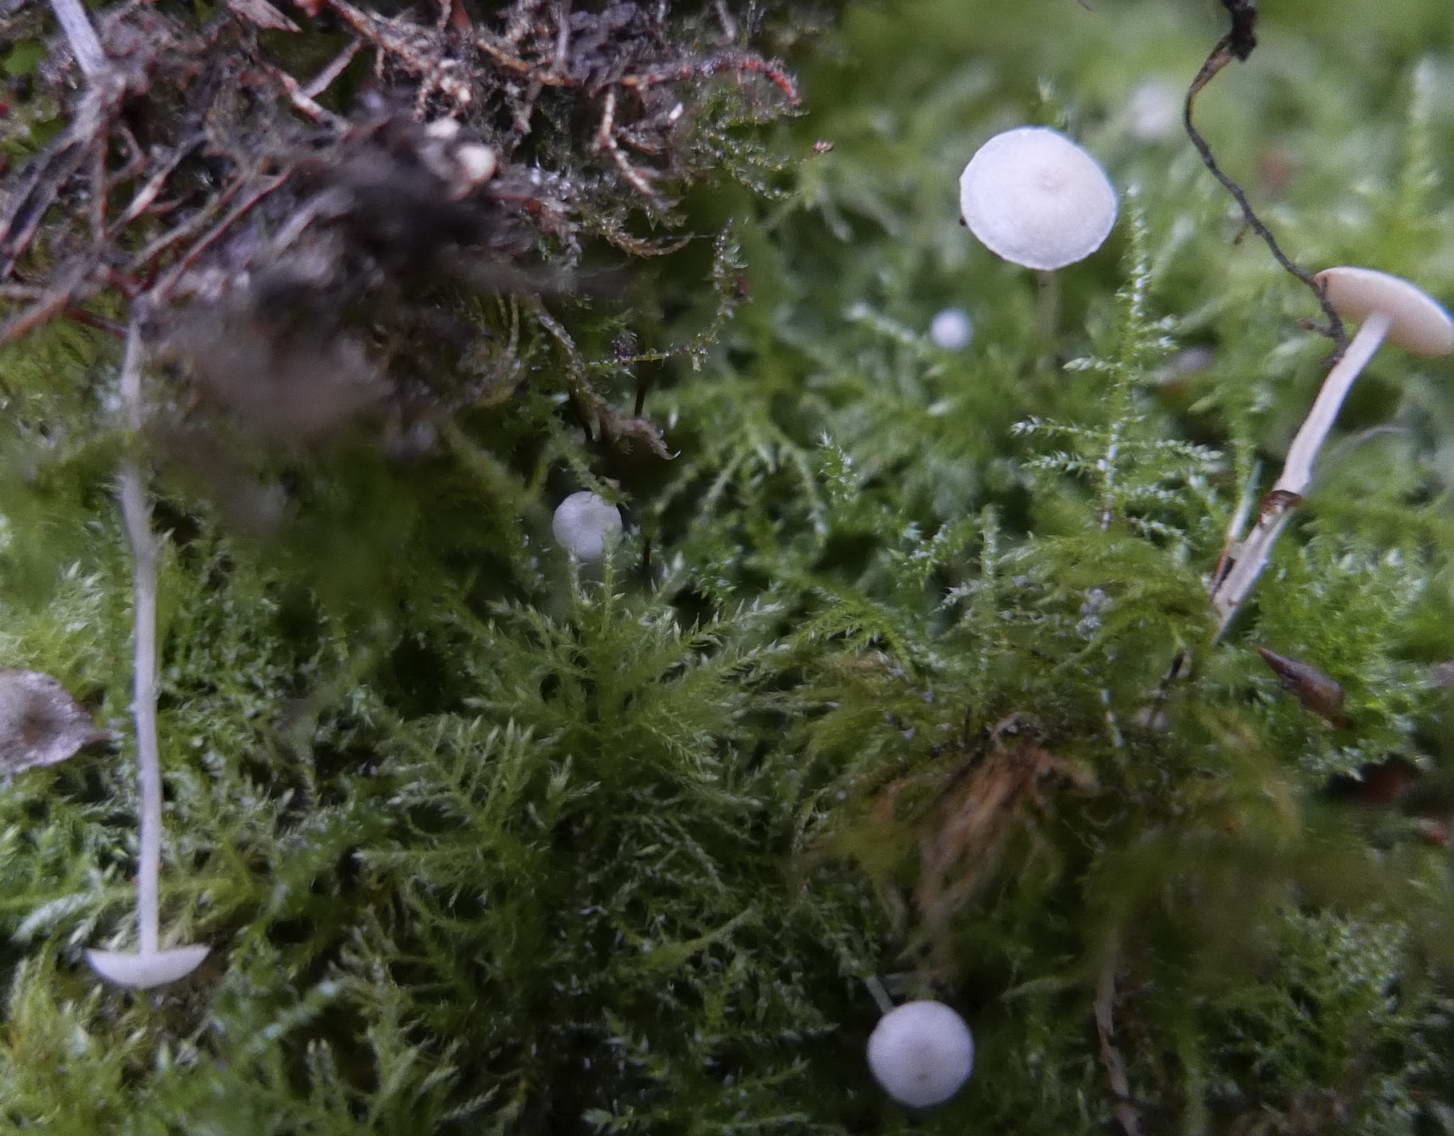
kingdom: Fungi
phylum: Basidiomycota
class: Agaricomycetes
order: Agaricales
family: Tricholomataceae
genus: Collybia
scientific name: Collybia cookei
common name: gulknoldet lighat
